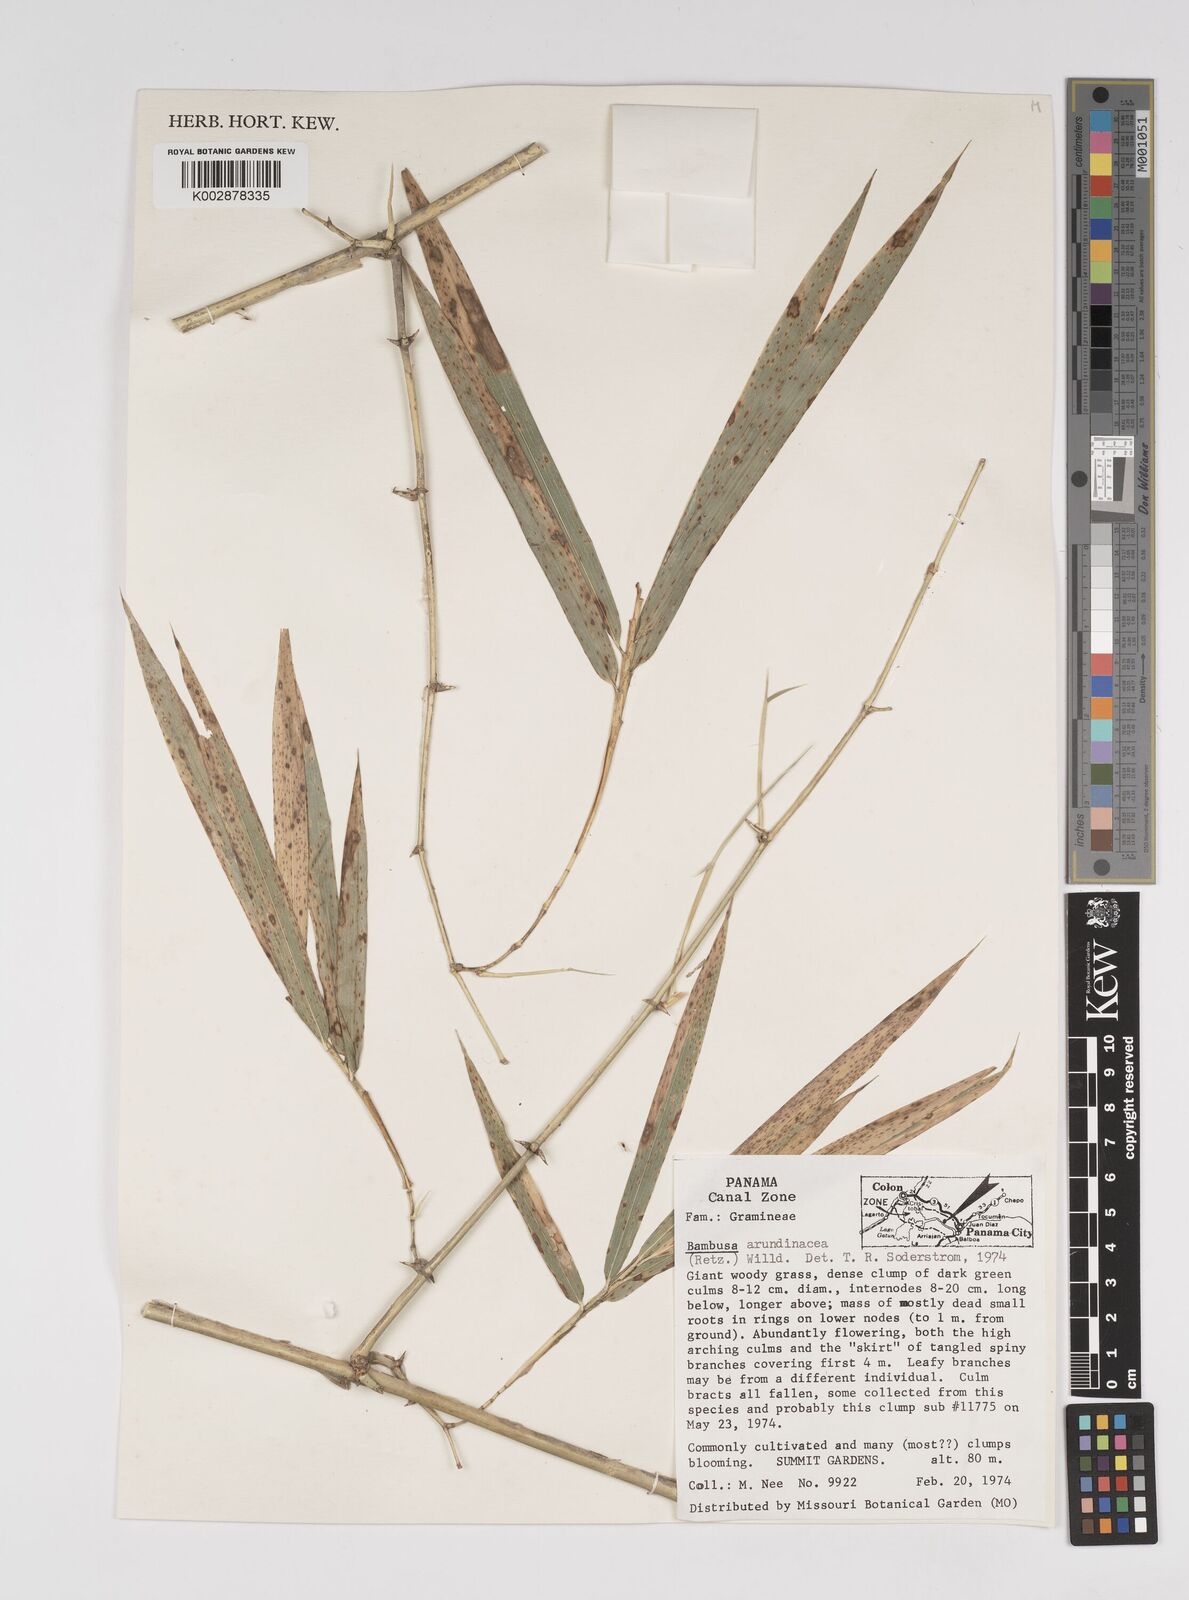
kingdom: Plantae
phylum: Tracheophyta
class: Liliopsida
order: Poales
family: Poaceae
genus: Bambusa
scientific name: Bambusa bambos
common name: Indian thorny bamboo
